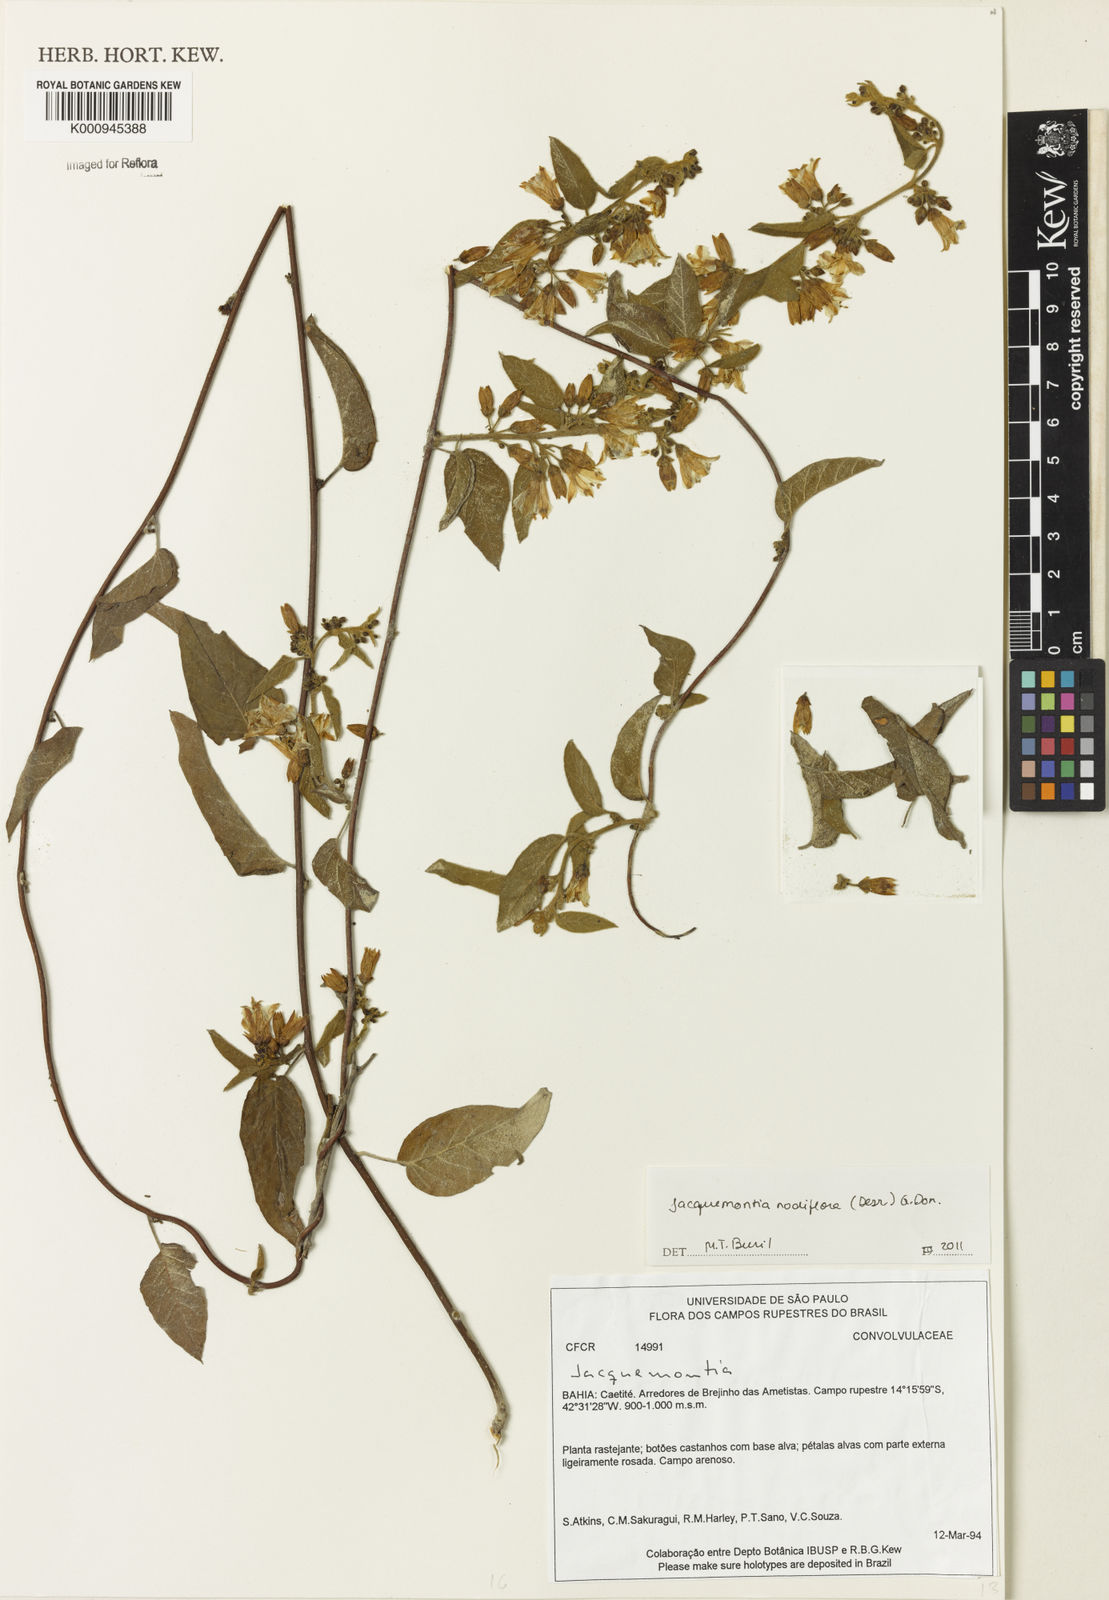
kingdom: Plantae
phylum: Tracheophyta
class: Magnoliopsida
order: Solanales
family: Convolvulaceae
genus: Jacquemontia
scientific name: Jacquemontia nodiflora
